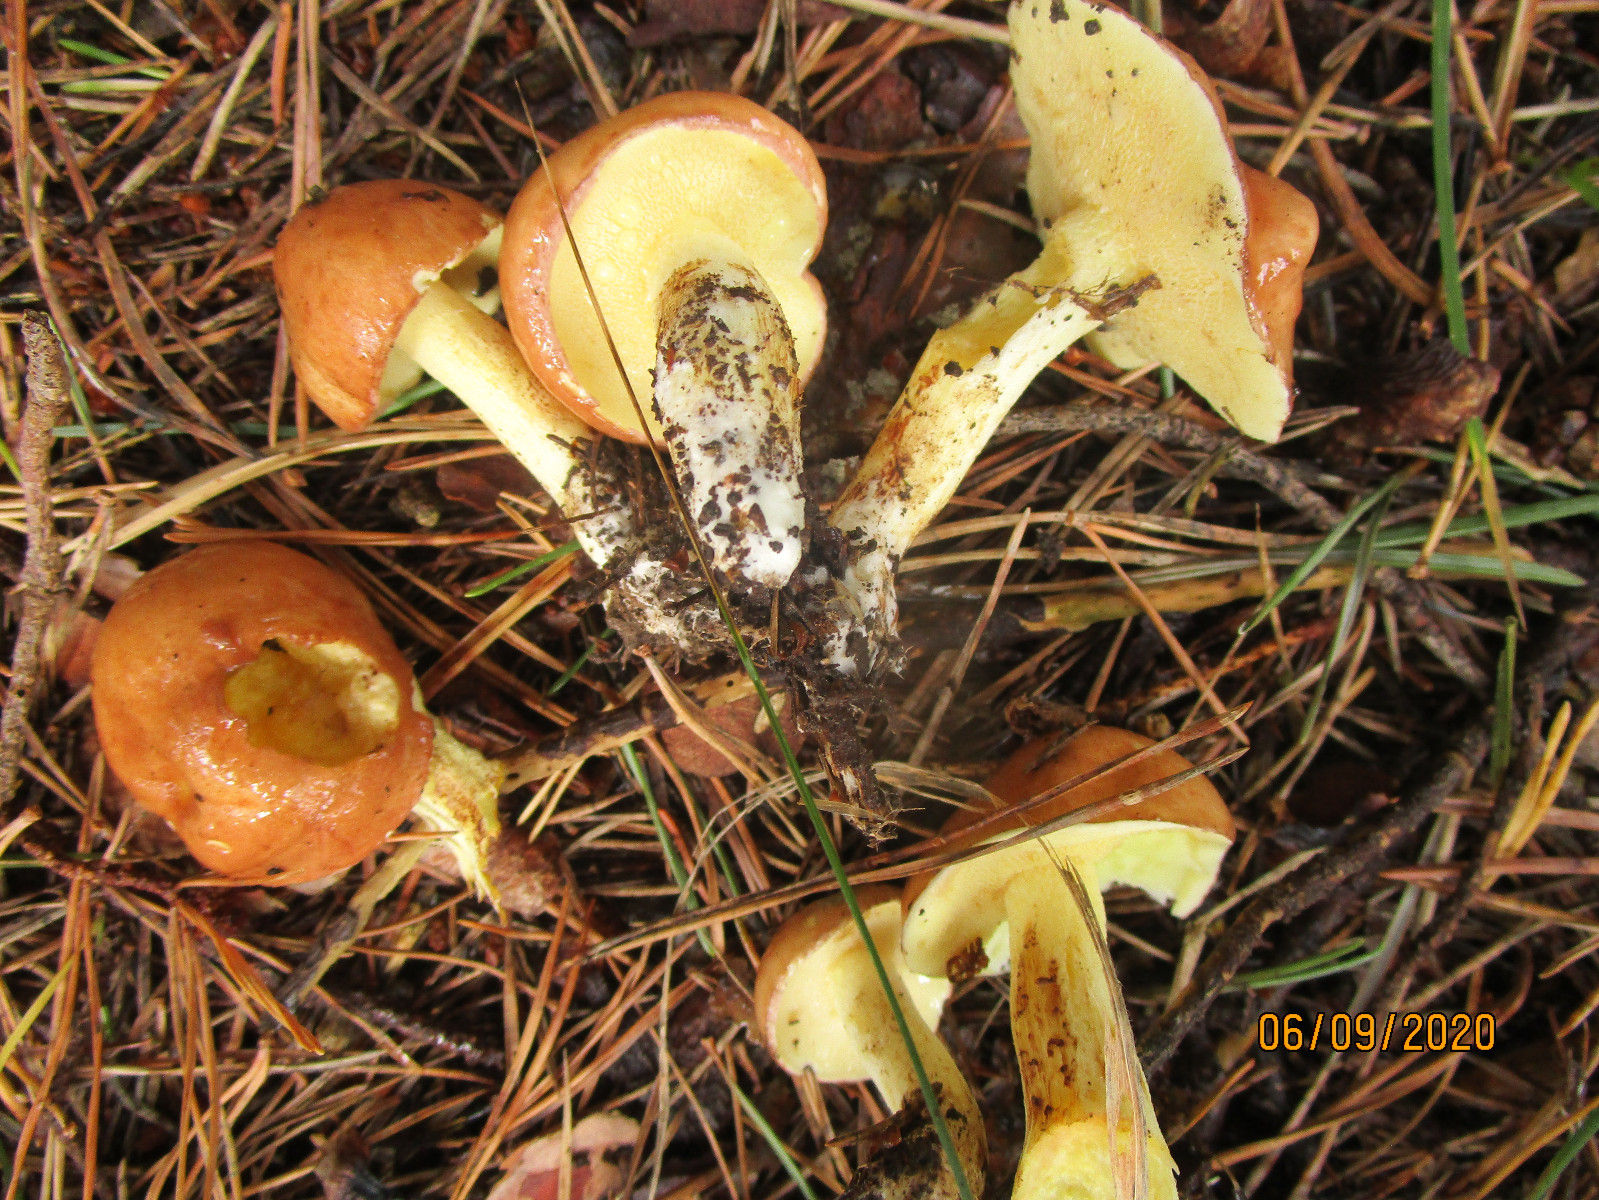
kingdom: Fungi
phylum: Basidiomycota
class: Agaricomycetes
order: Boletales
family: Suillaceae
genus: Suillus
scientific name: Suillus granulatus
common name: kornet slimrørhat
